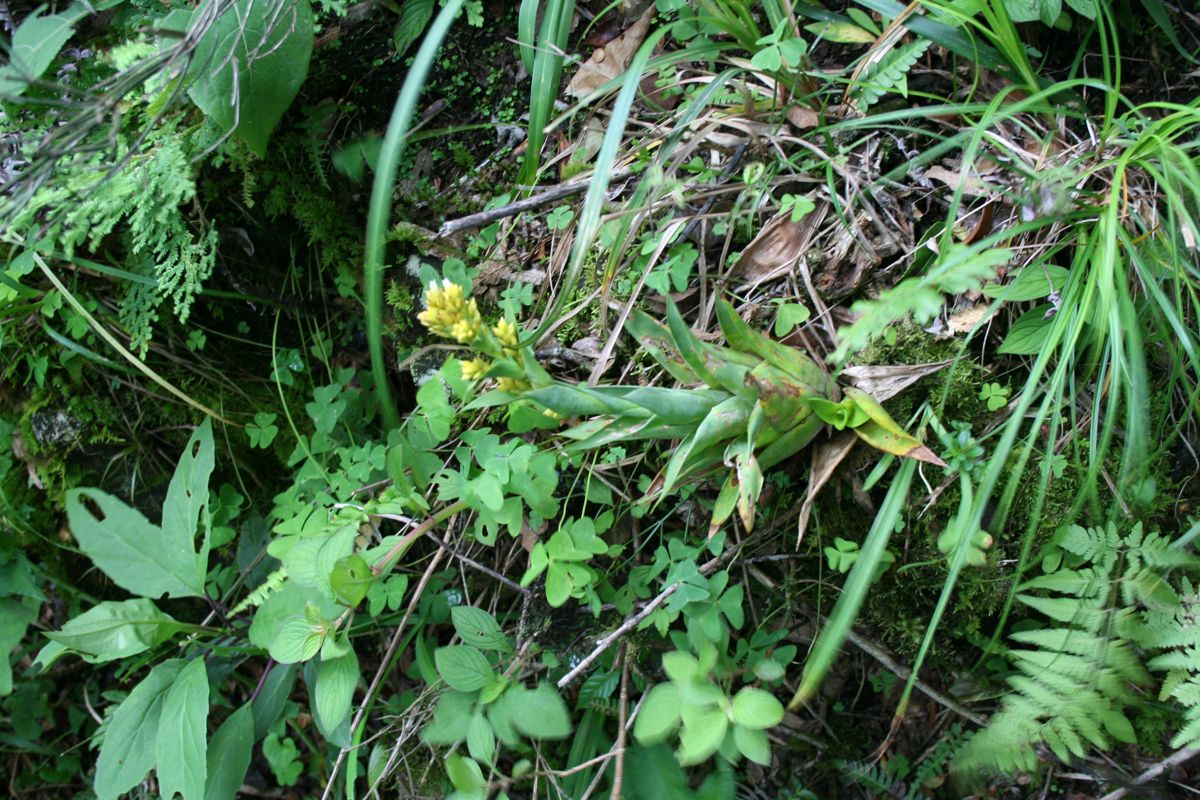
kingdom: Plantae
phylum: Tracheophyta
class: Liliopsida
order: Poales
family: Bromeliaceae
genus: Catopsis
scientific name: Catopsis paniculata
